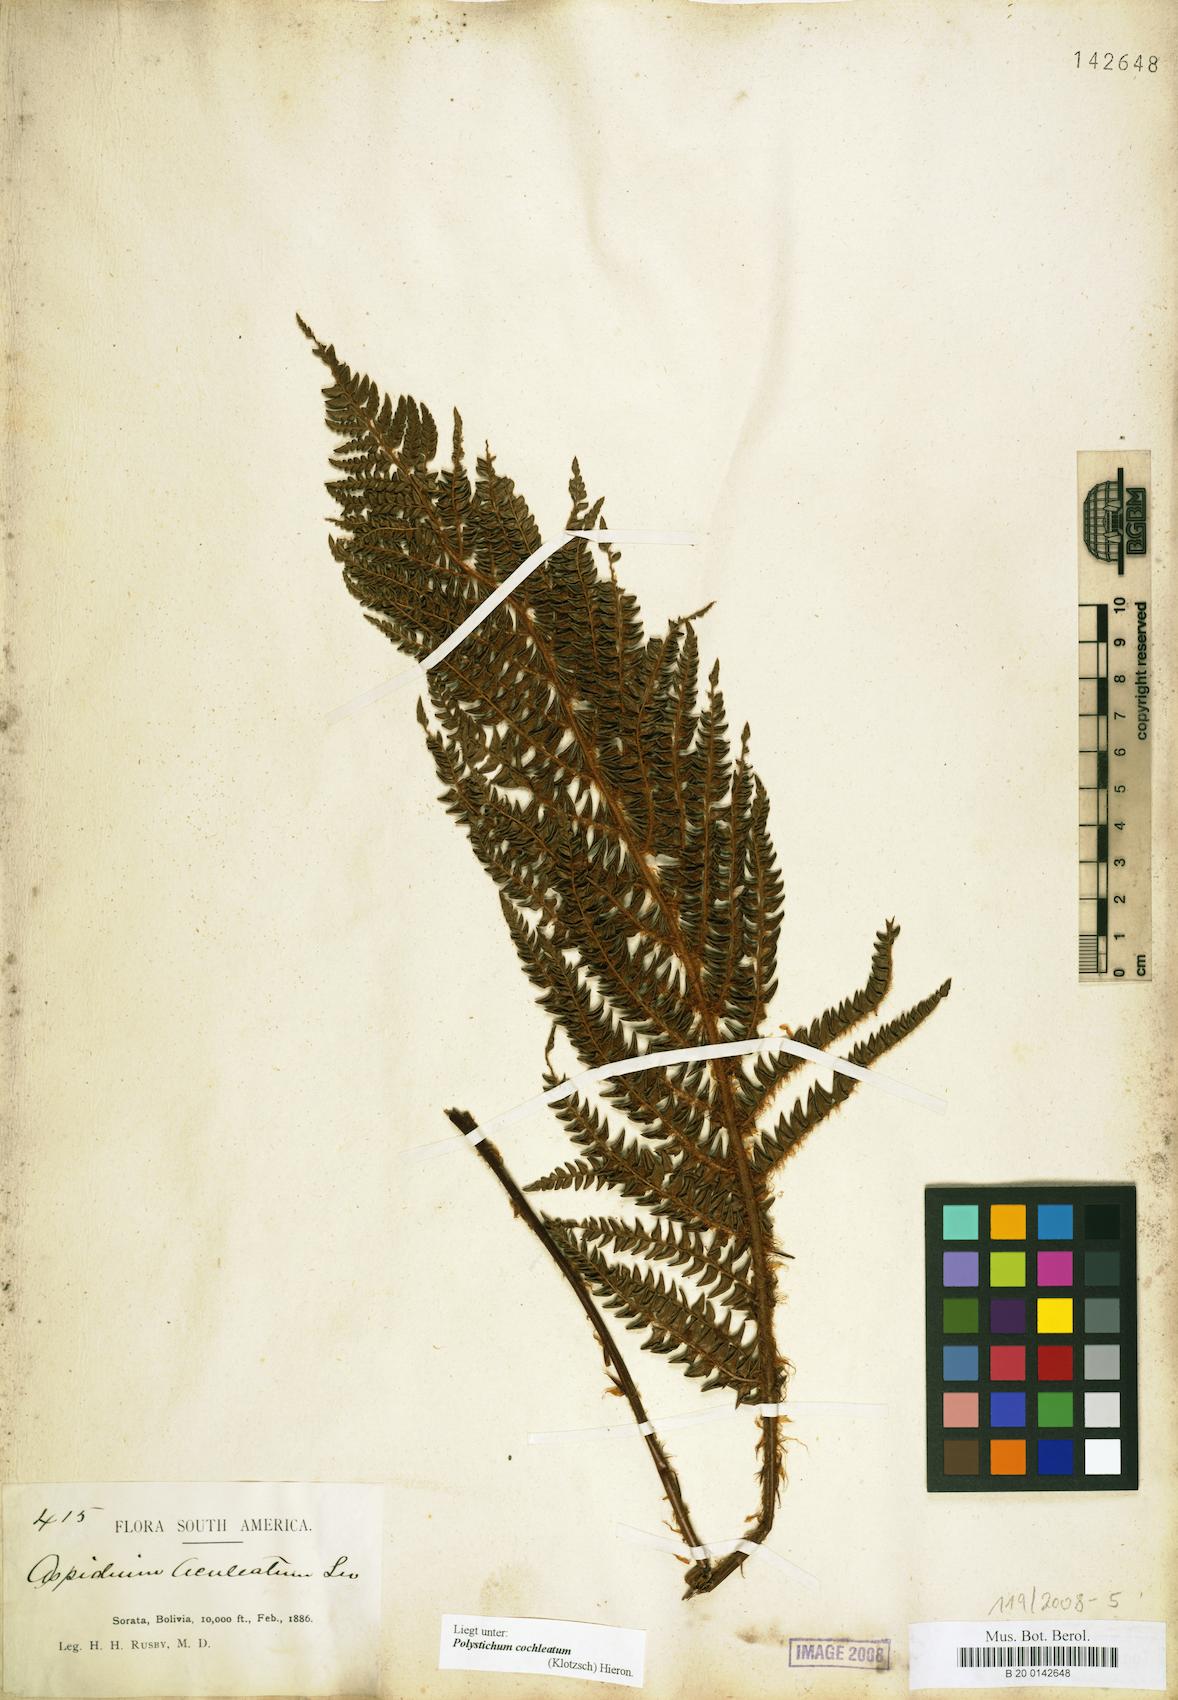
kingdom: Plantae
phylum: Tracheophyta
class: Polypodiopsida
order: Polypodiales
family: Dryopteridaceae
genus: Polystichum
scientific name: Polystichum cochleatum
